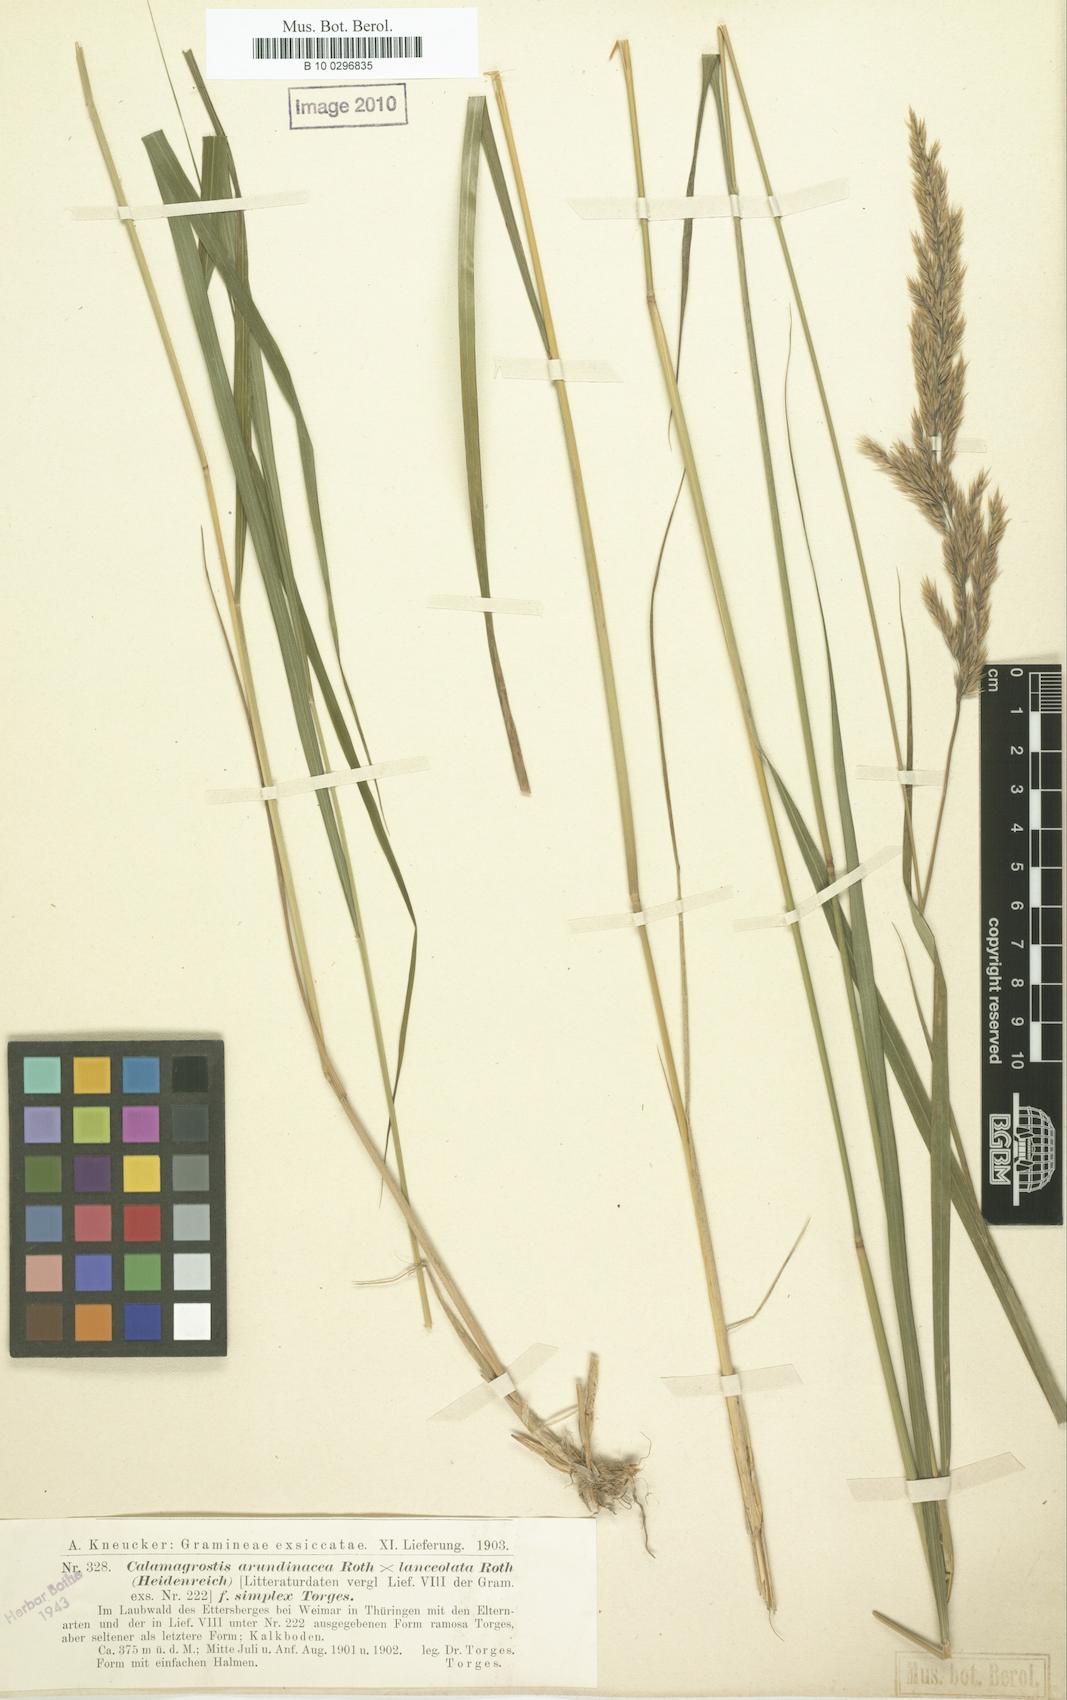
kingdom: Plantae
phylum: Tracheophyta
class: Liliopsida
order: Poales
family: Poaceae
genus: Calamagrostis
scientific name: Calamagrostis hartmaniana
